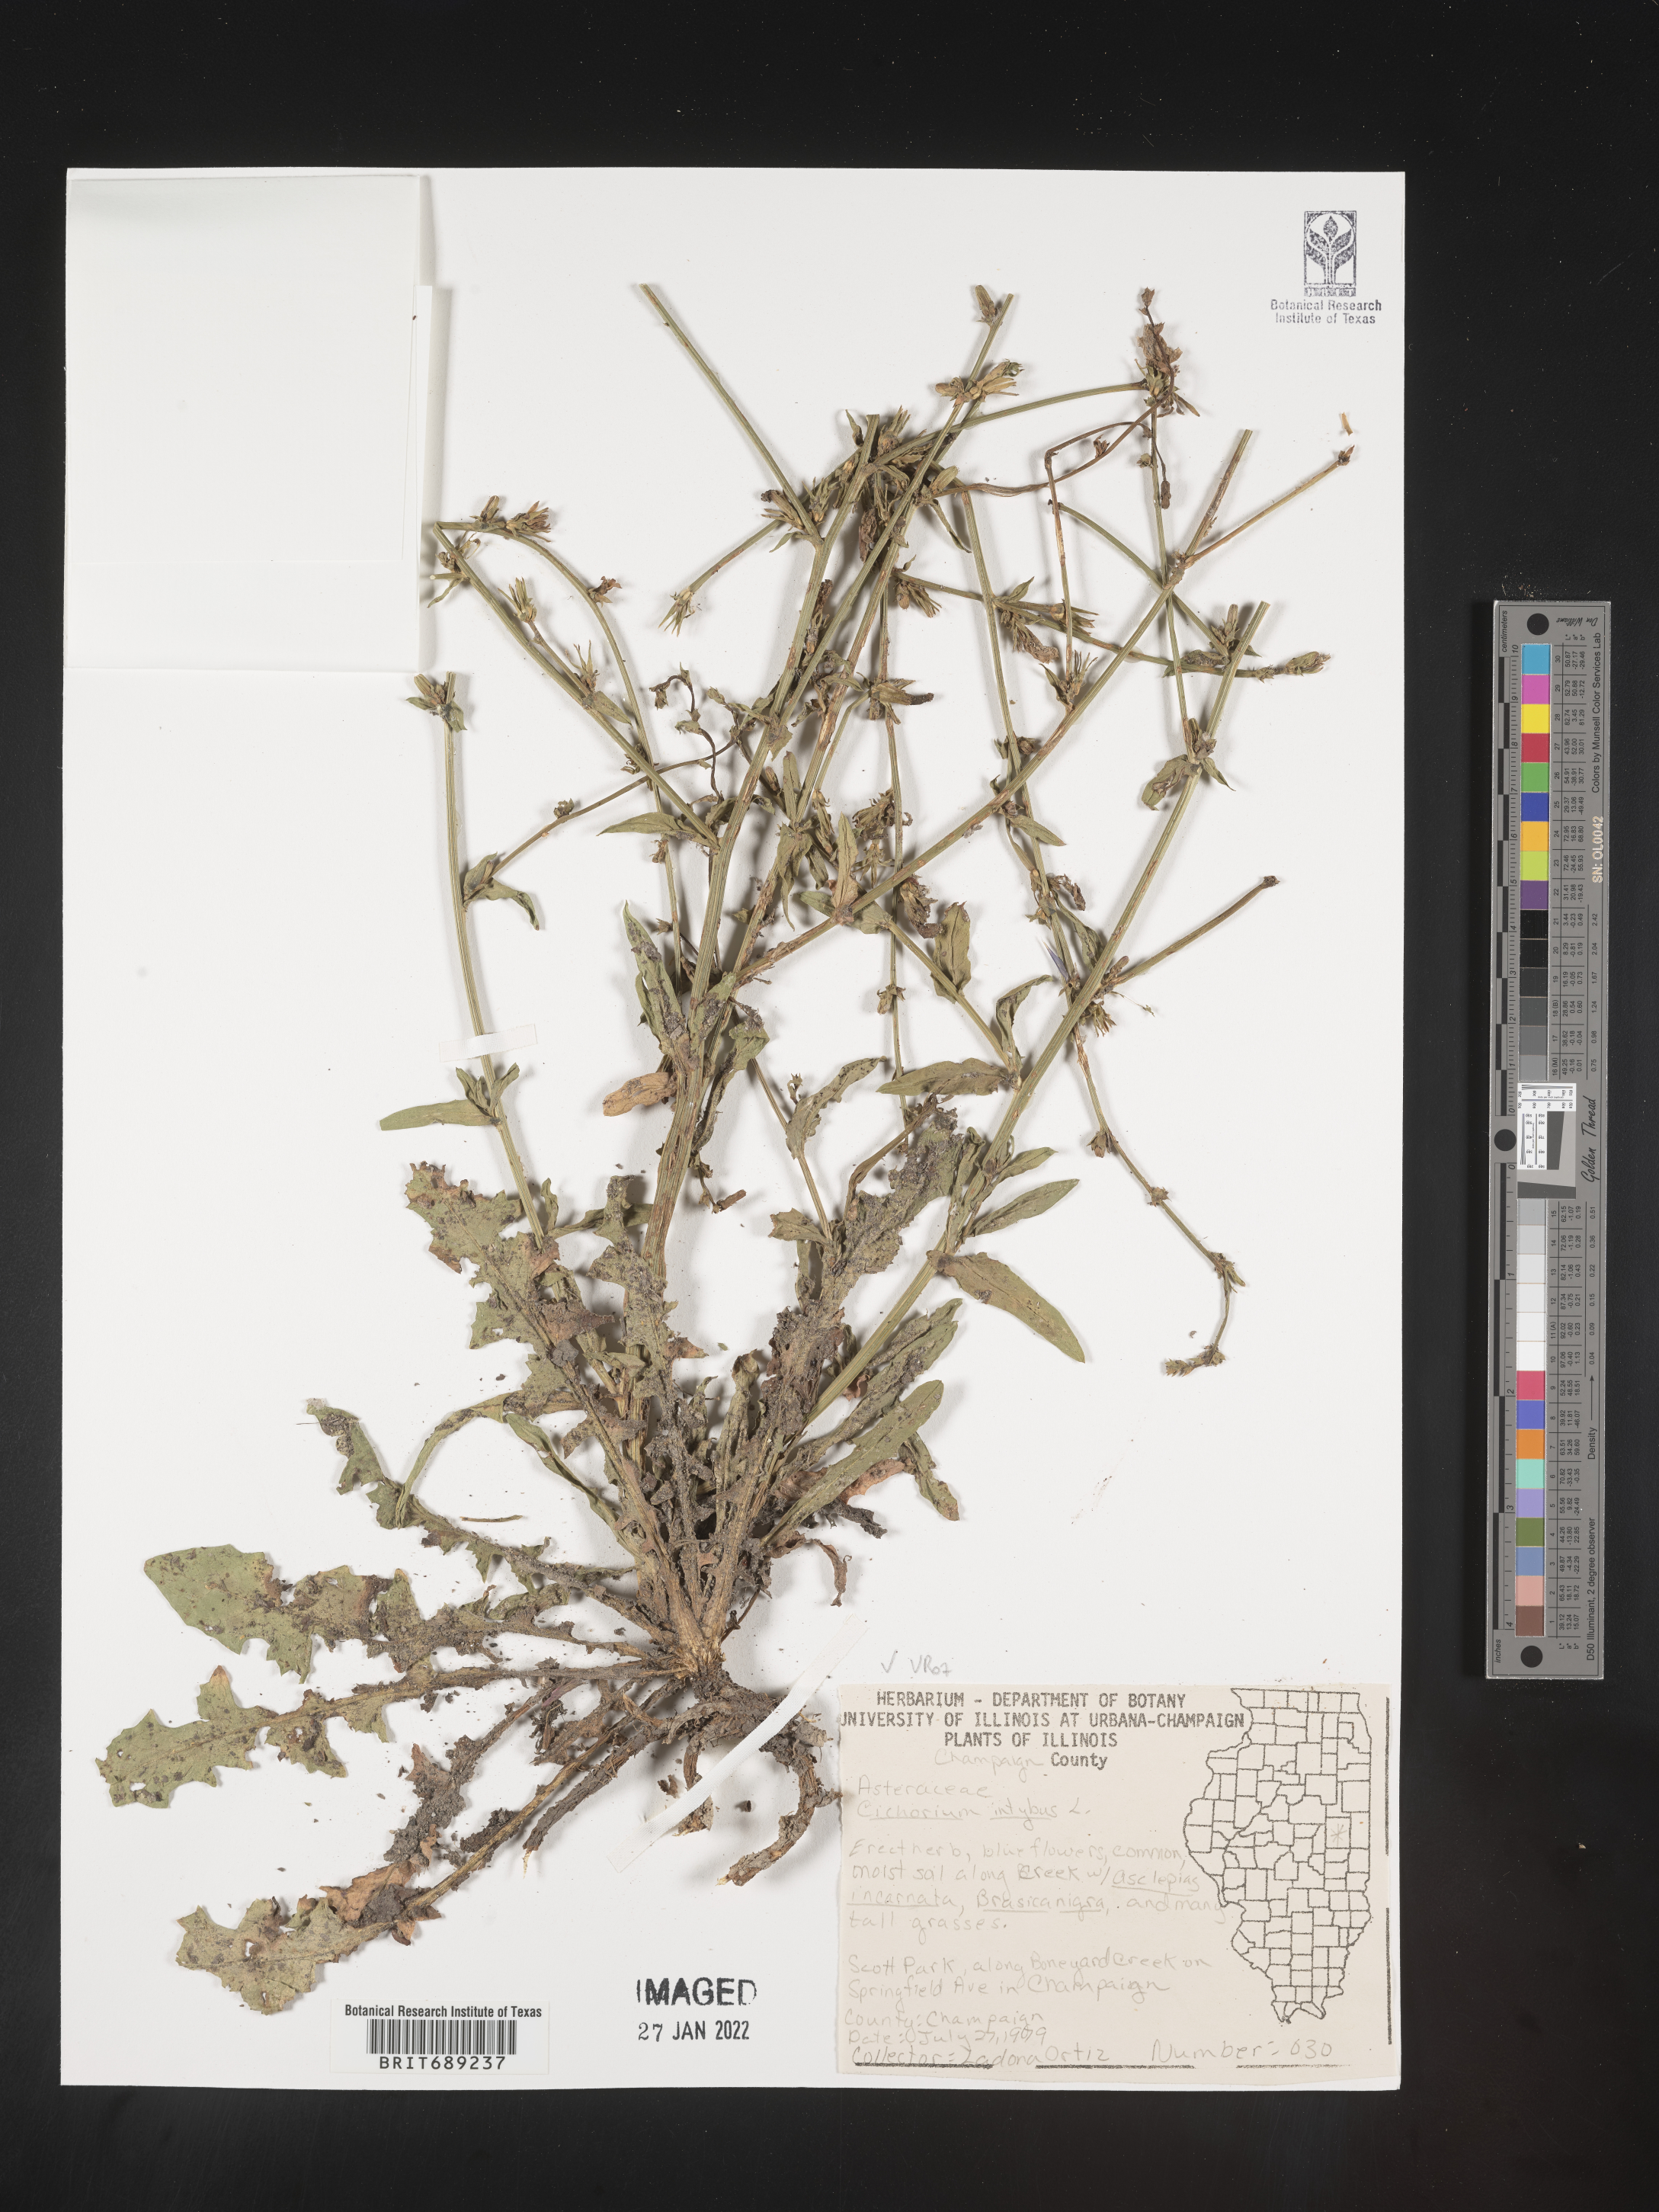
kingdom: Plantae
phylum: Tracheophyta
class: Magnoliopsida
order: Asterales
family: Asteraceae
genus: Cichorium
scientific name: Cichorium intybus
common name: Chicory
